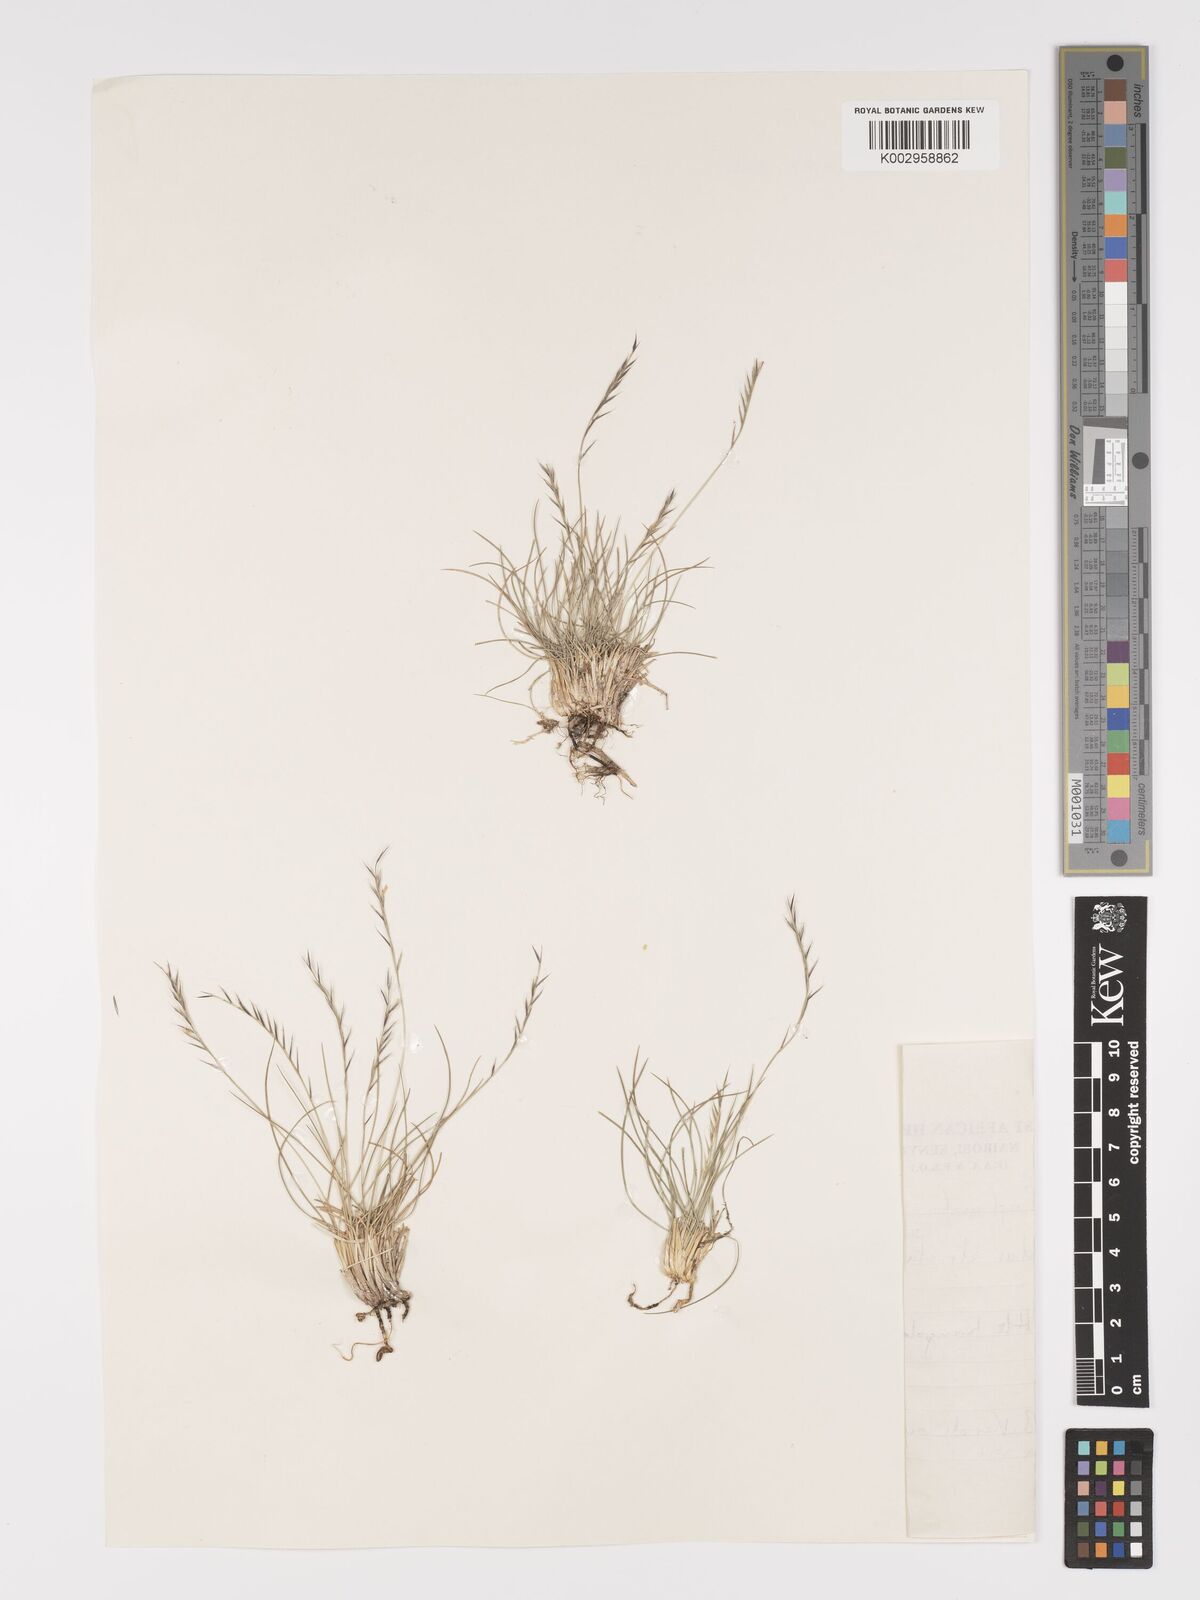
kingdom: Plantae
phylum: Tracheophyta
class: Liliopsida
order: Poales
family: Poaceae
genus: Nardus
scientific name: Nardus stricta
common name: Mat-grass
